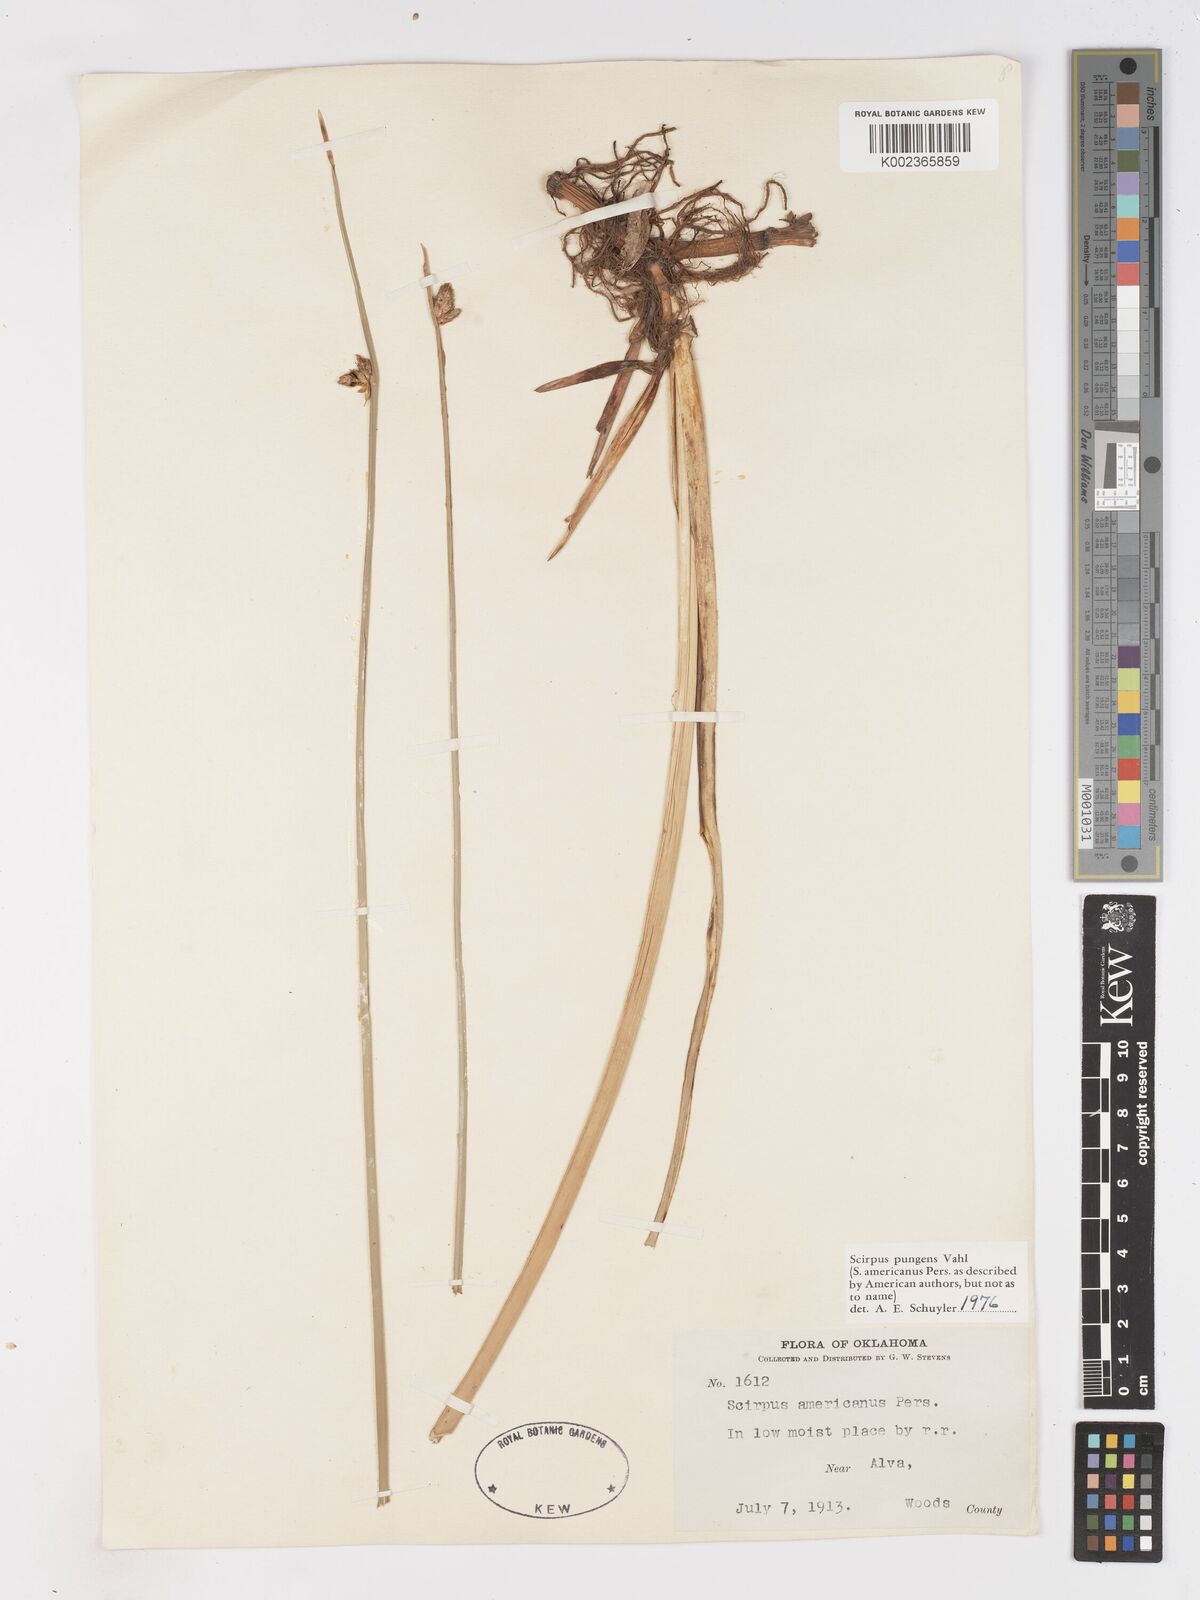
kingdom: Plantae
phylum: Tracheophyta
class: Liliopsida
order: Poales
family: Cyperaceae
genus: Schoenoplectus
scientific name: Schoenoplectus pungens
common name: Sharp club-rush
